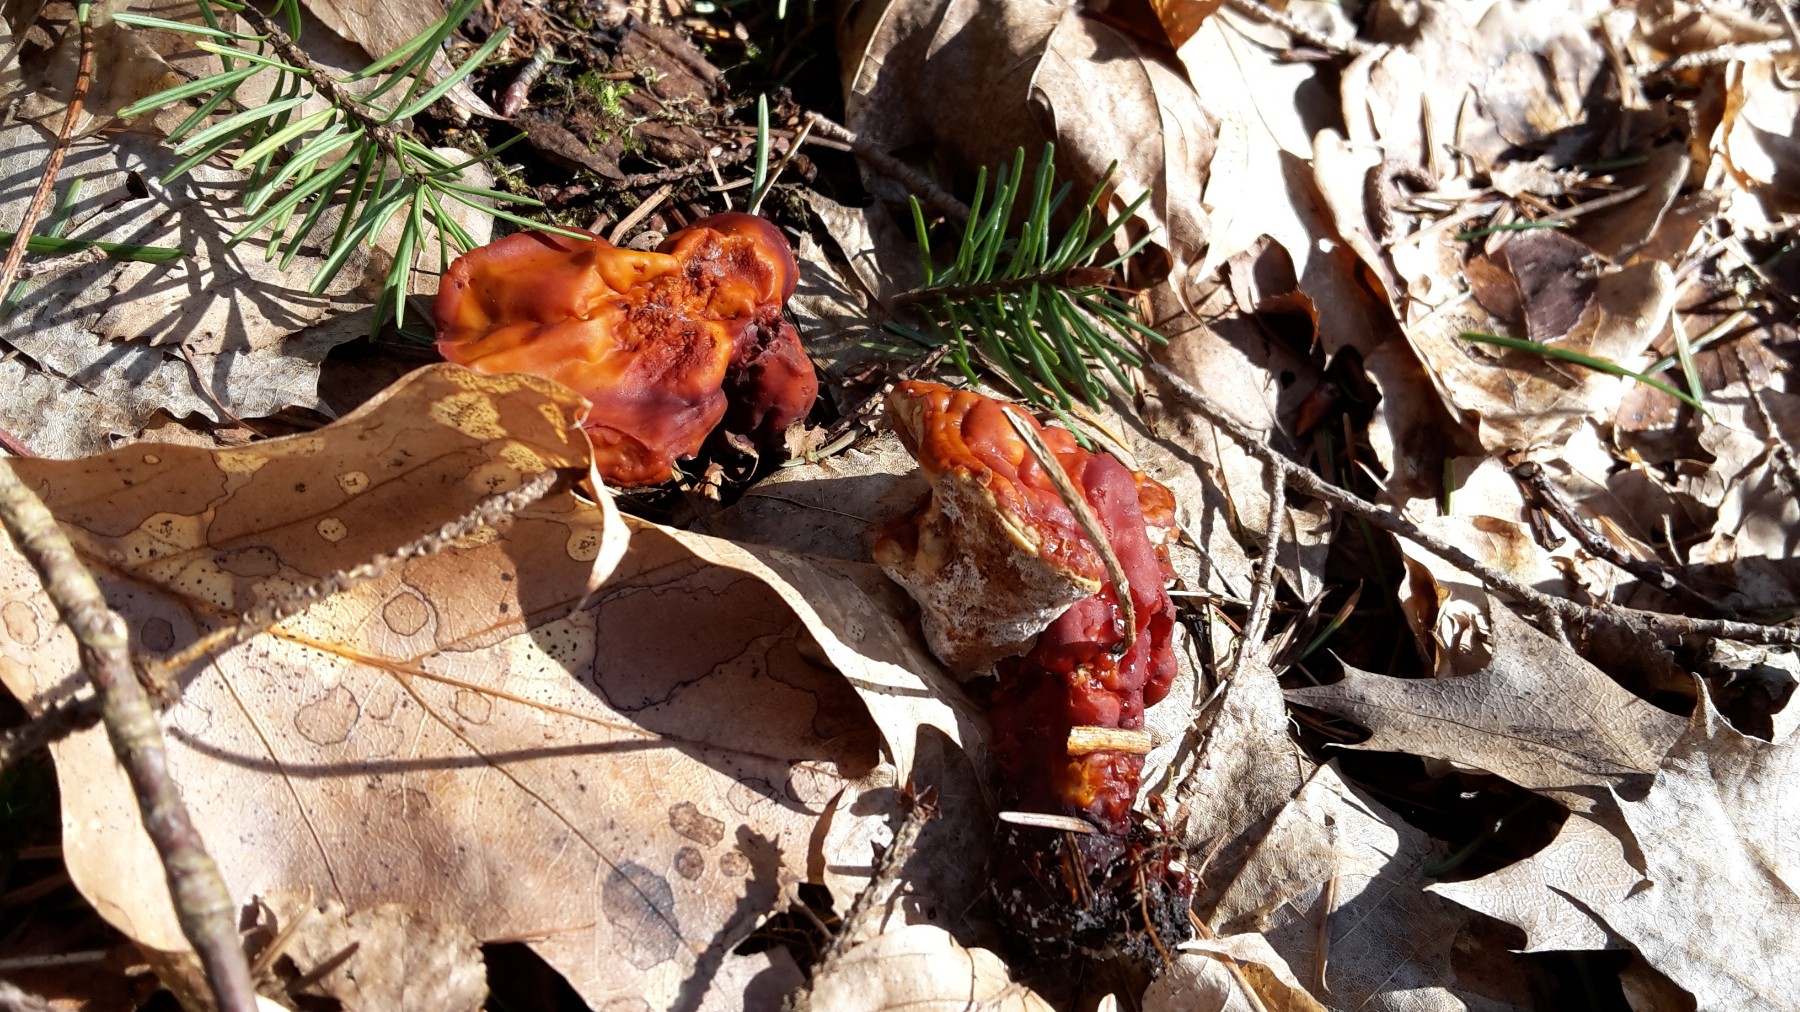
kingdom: Fungi
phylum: Basidiomycota
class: Agaricomycetes
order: Polyporales
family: Polyporaceae
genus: Ganoderma
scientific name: Ganoderma lucidum
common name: skinnende lakporesvamp
